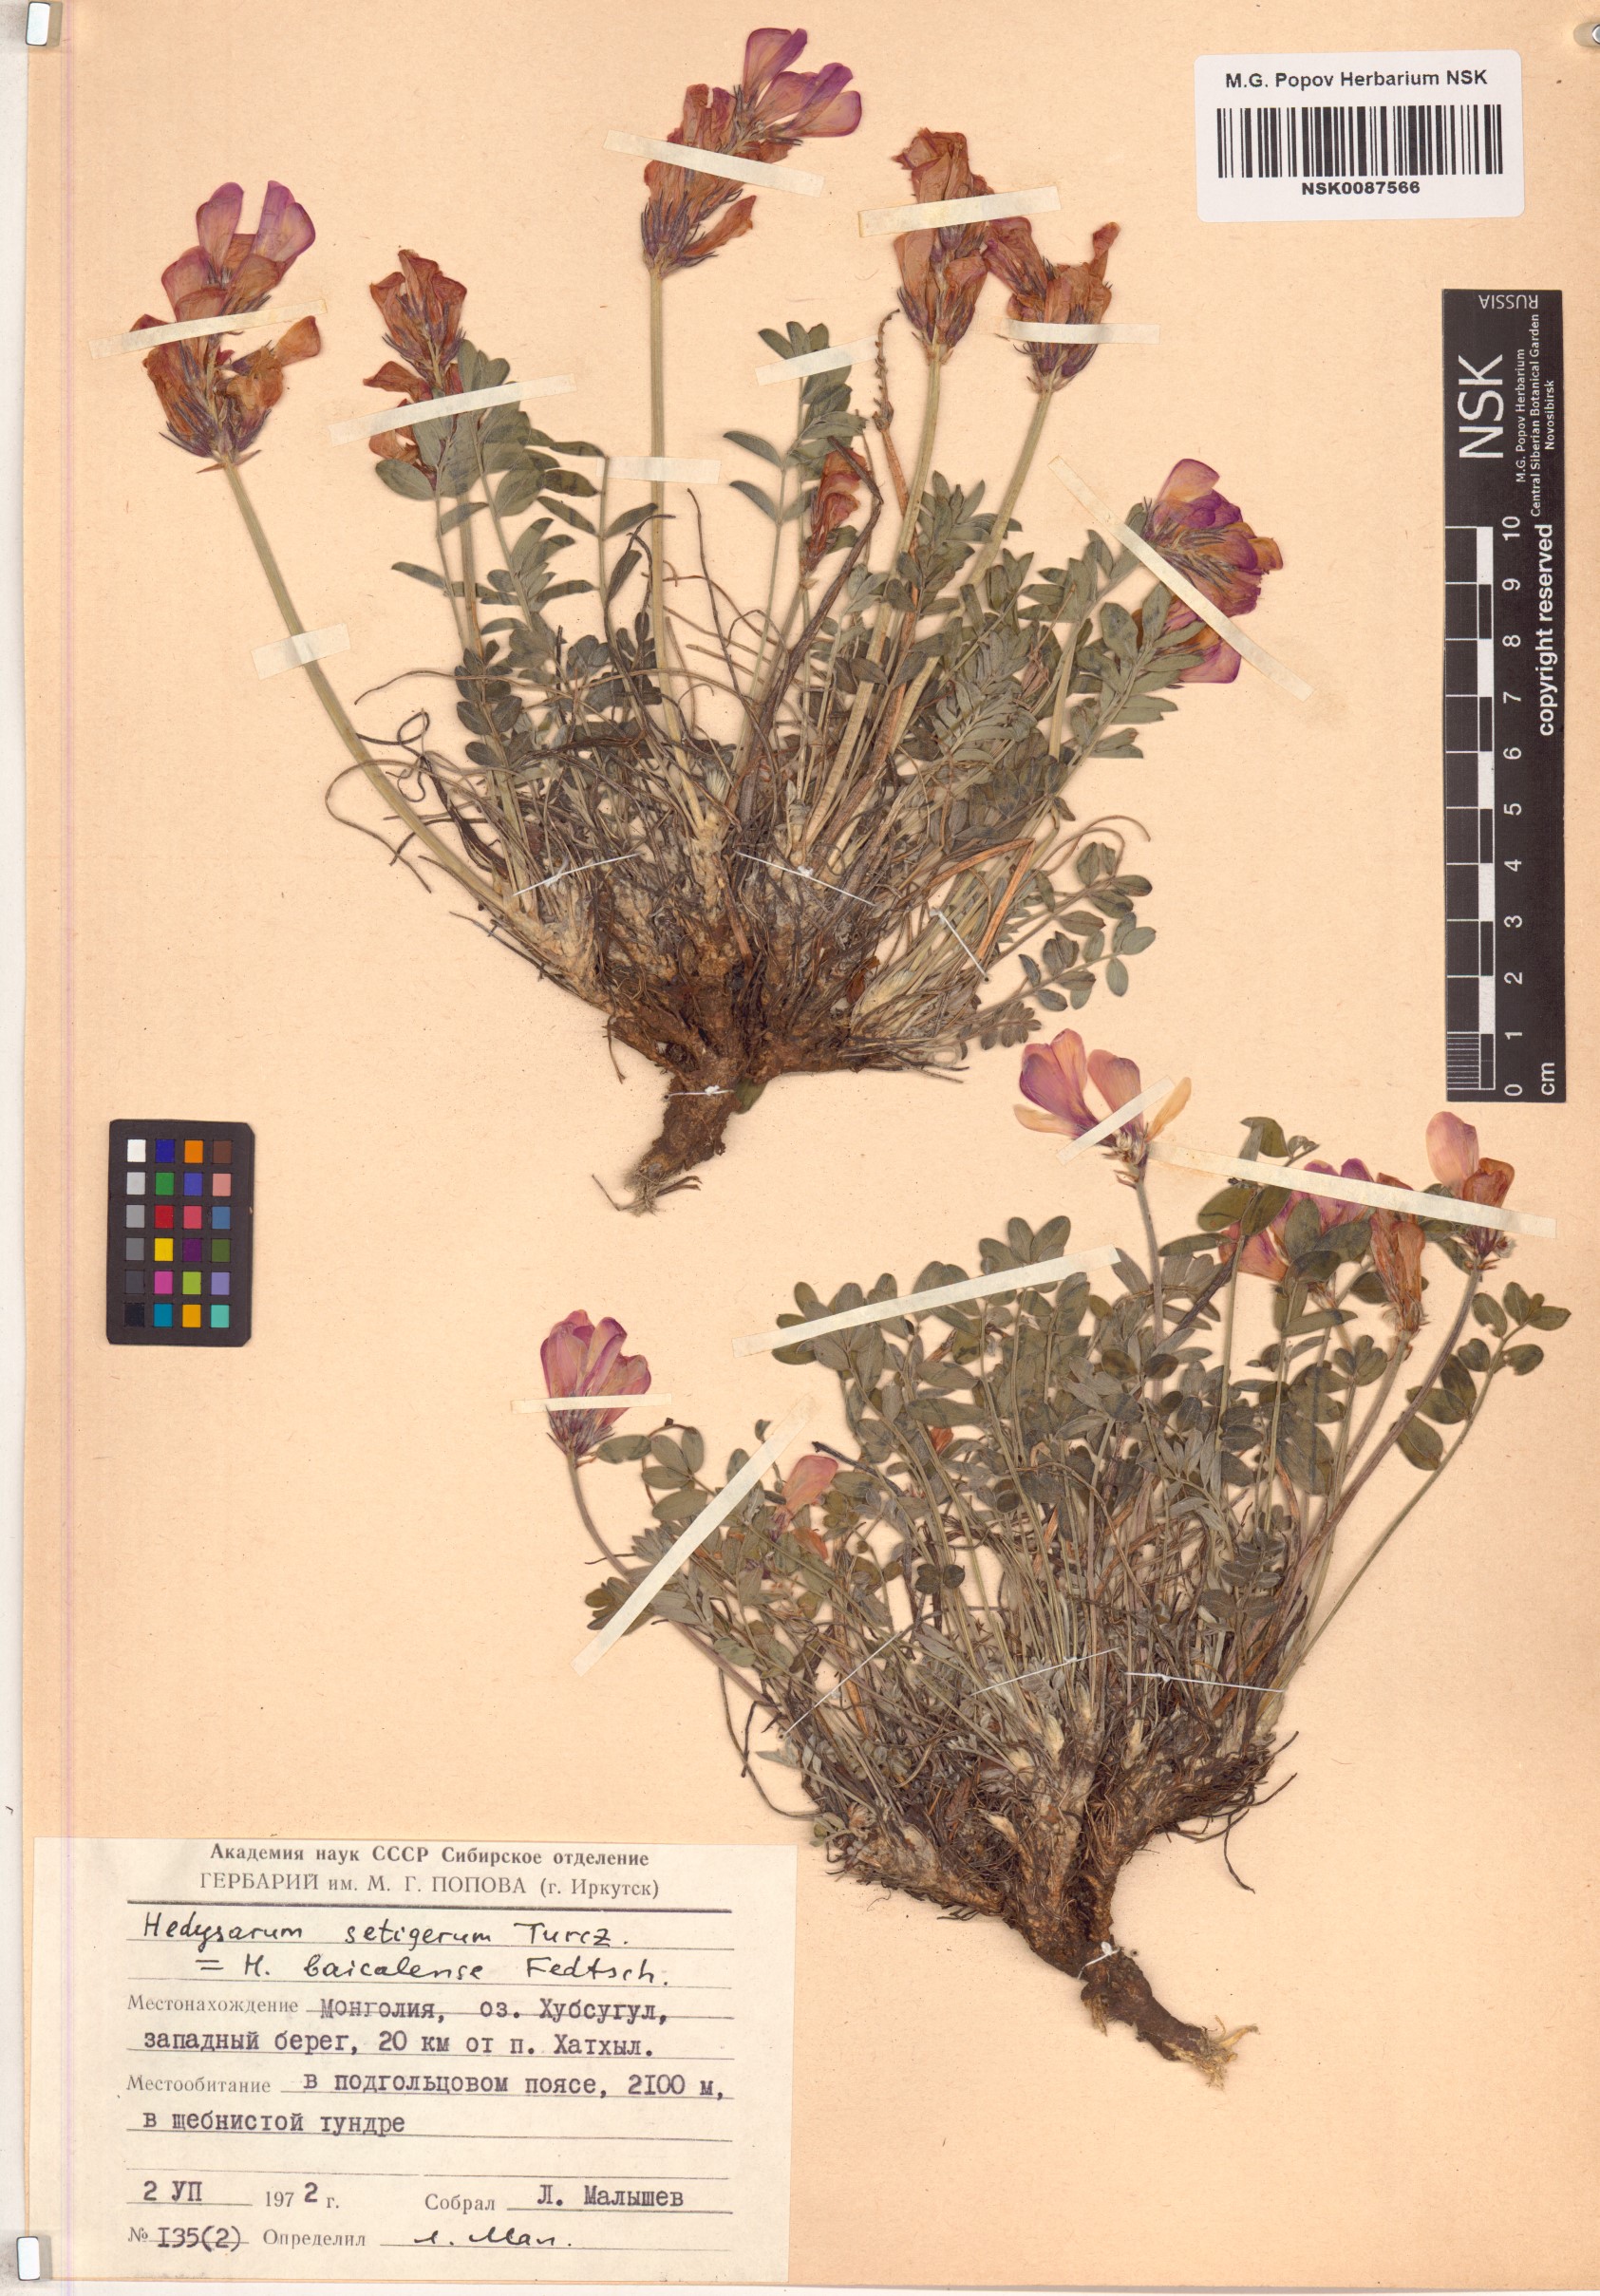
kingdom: Plantae
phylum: Tracheophyta
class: Magnoliopsida
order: Fabales
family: Fabaceae
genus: Hedysarum
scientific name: Hedysarum setigerum
